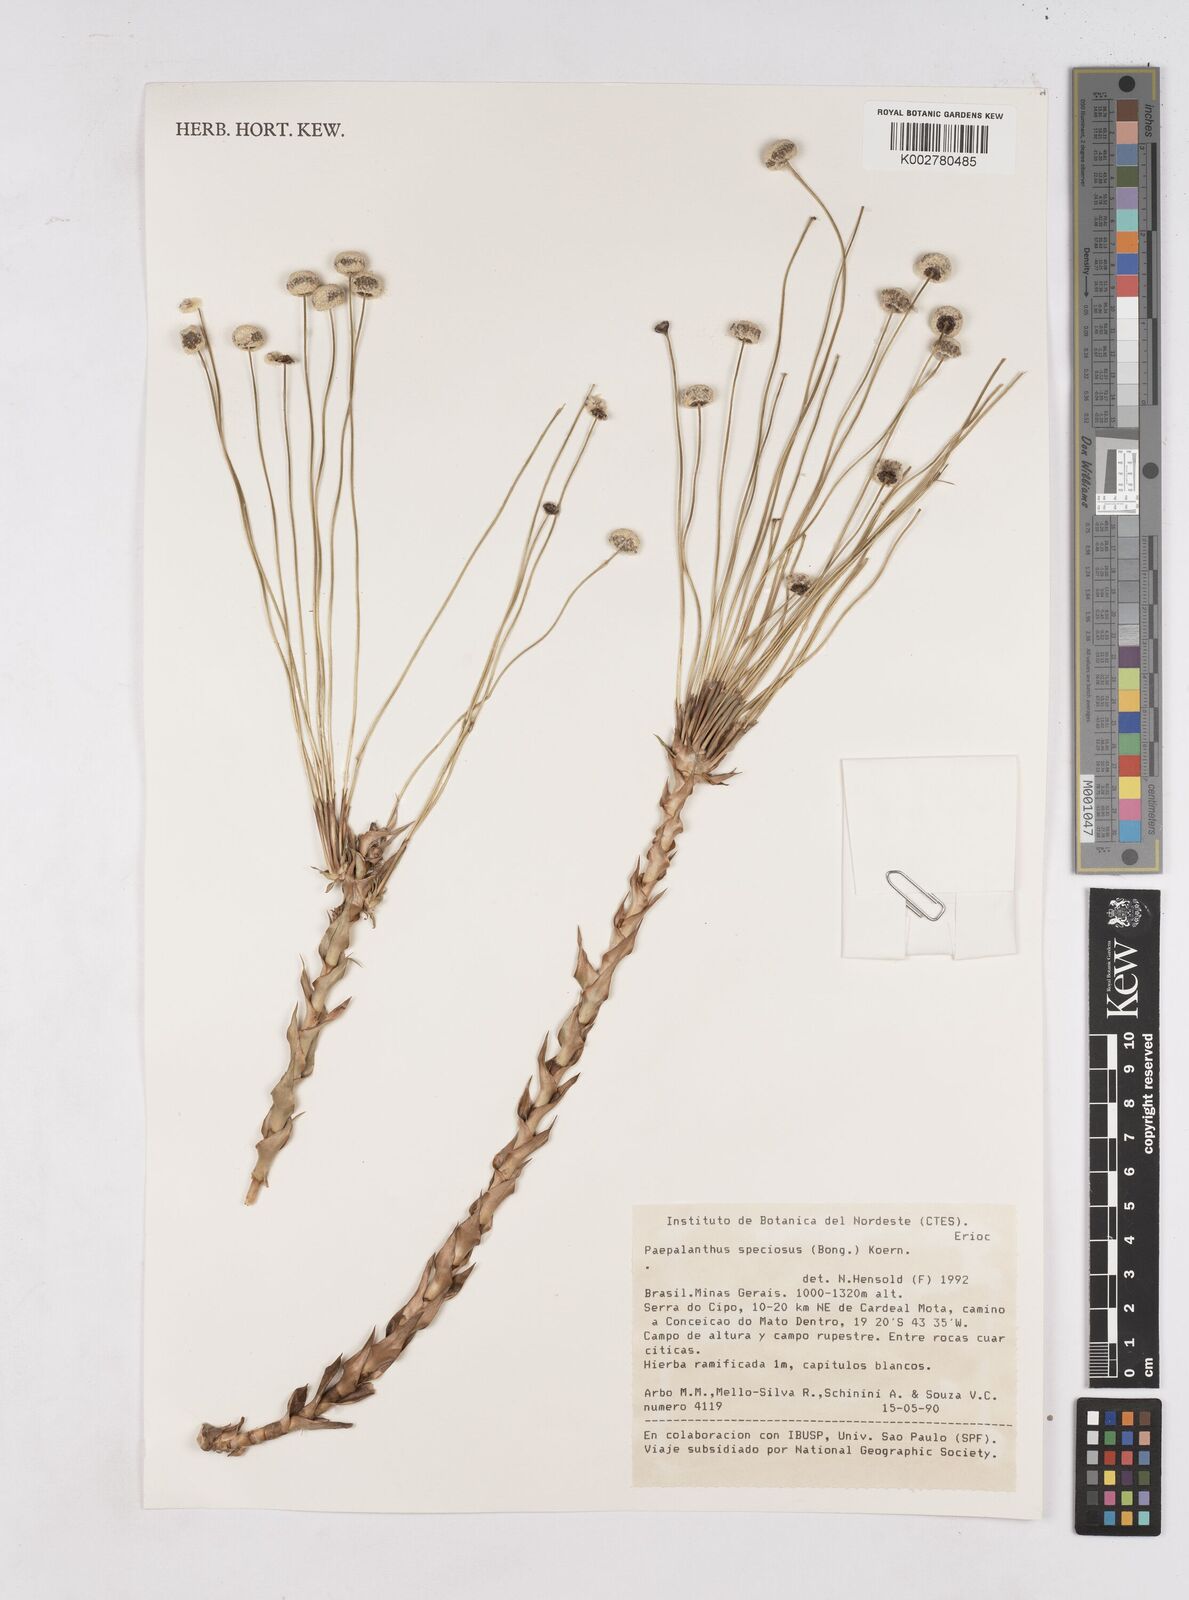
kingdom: Plantae
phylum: Tracheophyta
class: Liliopsida
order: Poales
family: Eriocaulaceae
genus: Paepalanthus
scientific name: Paepalanthus chiquitensis
